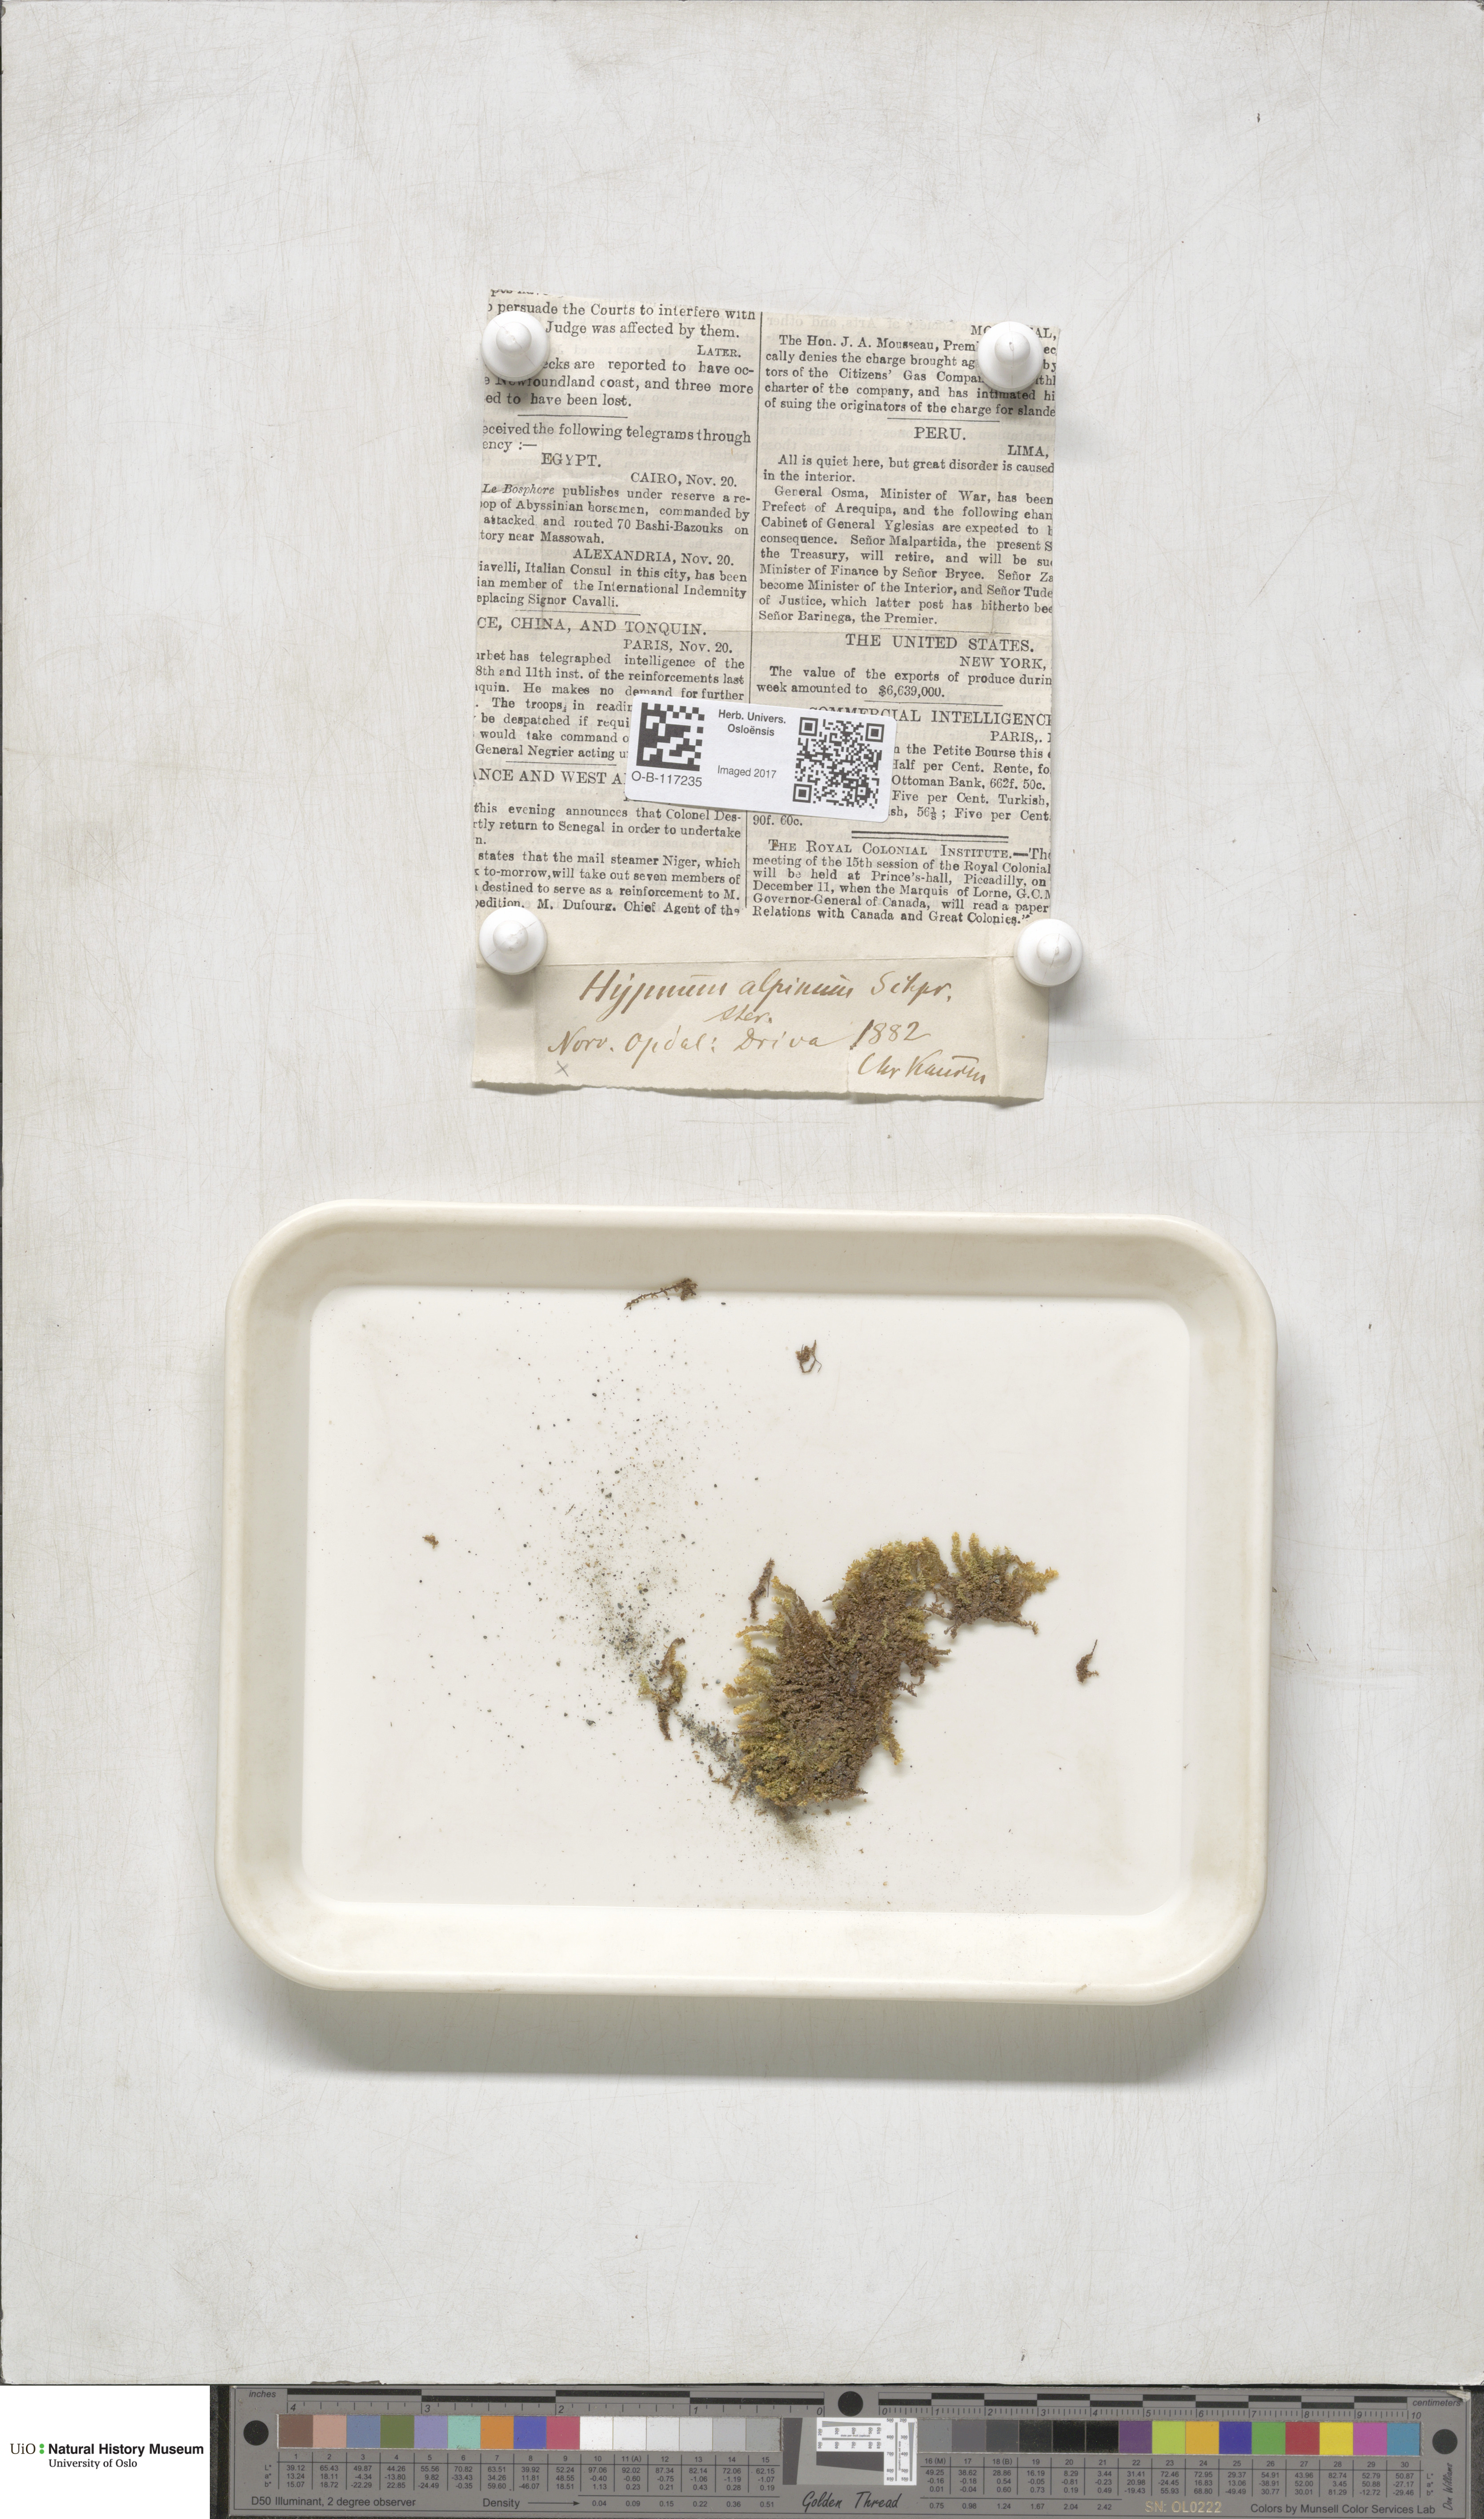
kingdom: Plantae
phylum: Bryophyta
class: Bryopsida
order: Hypnales
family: Amblystegiaceae
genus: Platyhypnum
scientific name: Platyhypnum alpestre
